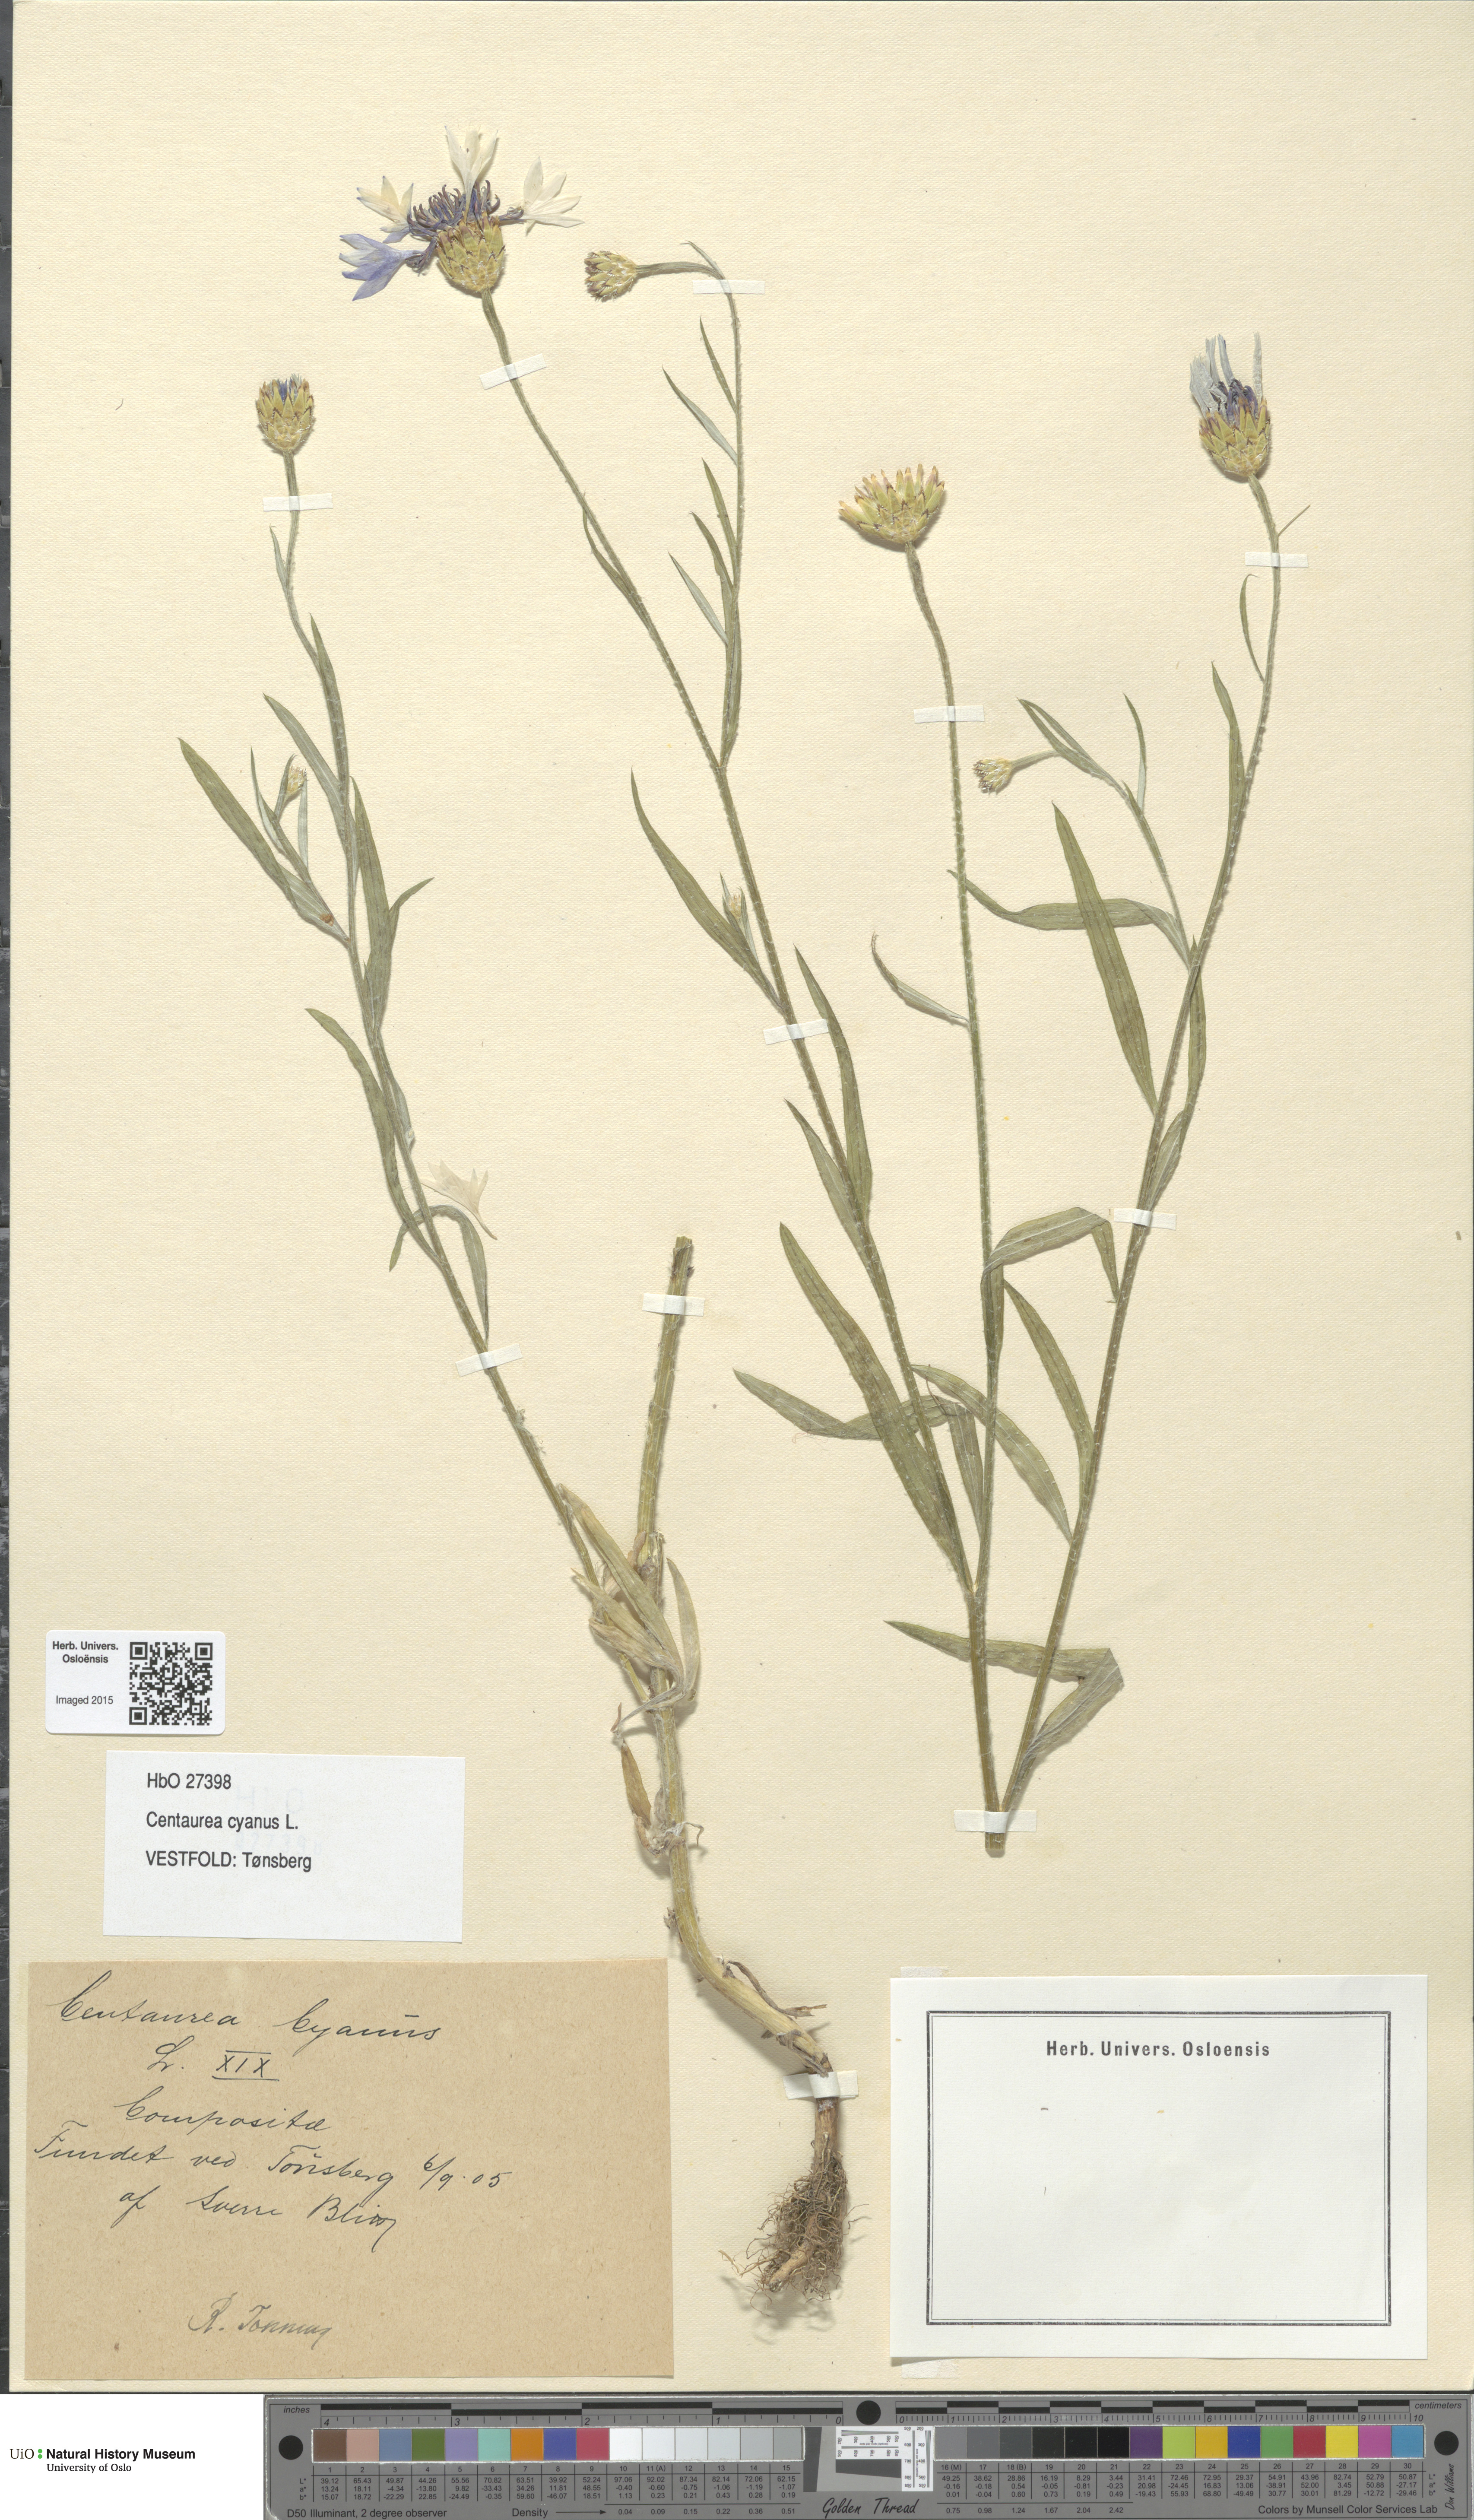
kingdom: Plantae
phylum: Tracheophyta
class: Magnoliopsida
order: Asterales
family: Asteraceae
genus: Centaurea
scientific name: Centaurea cyanus
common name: Cornflower
